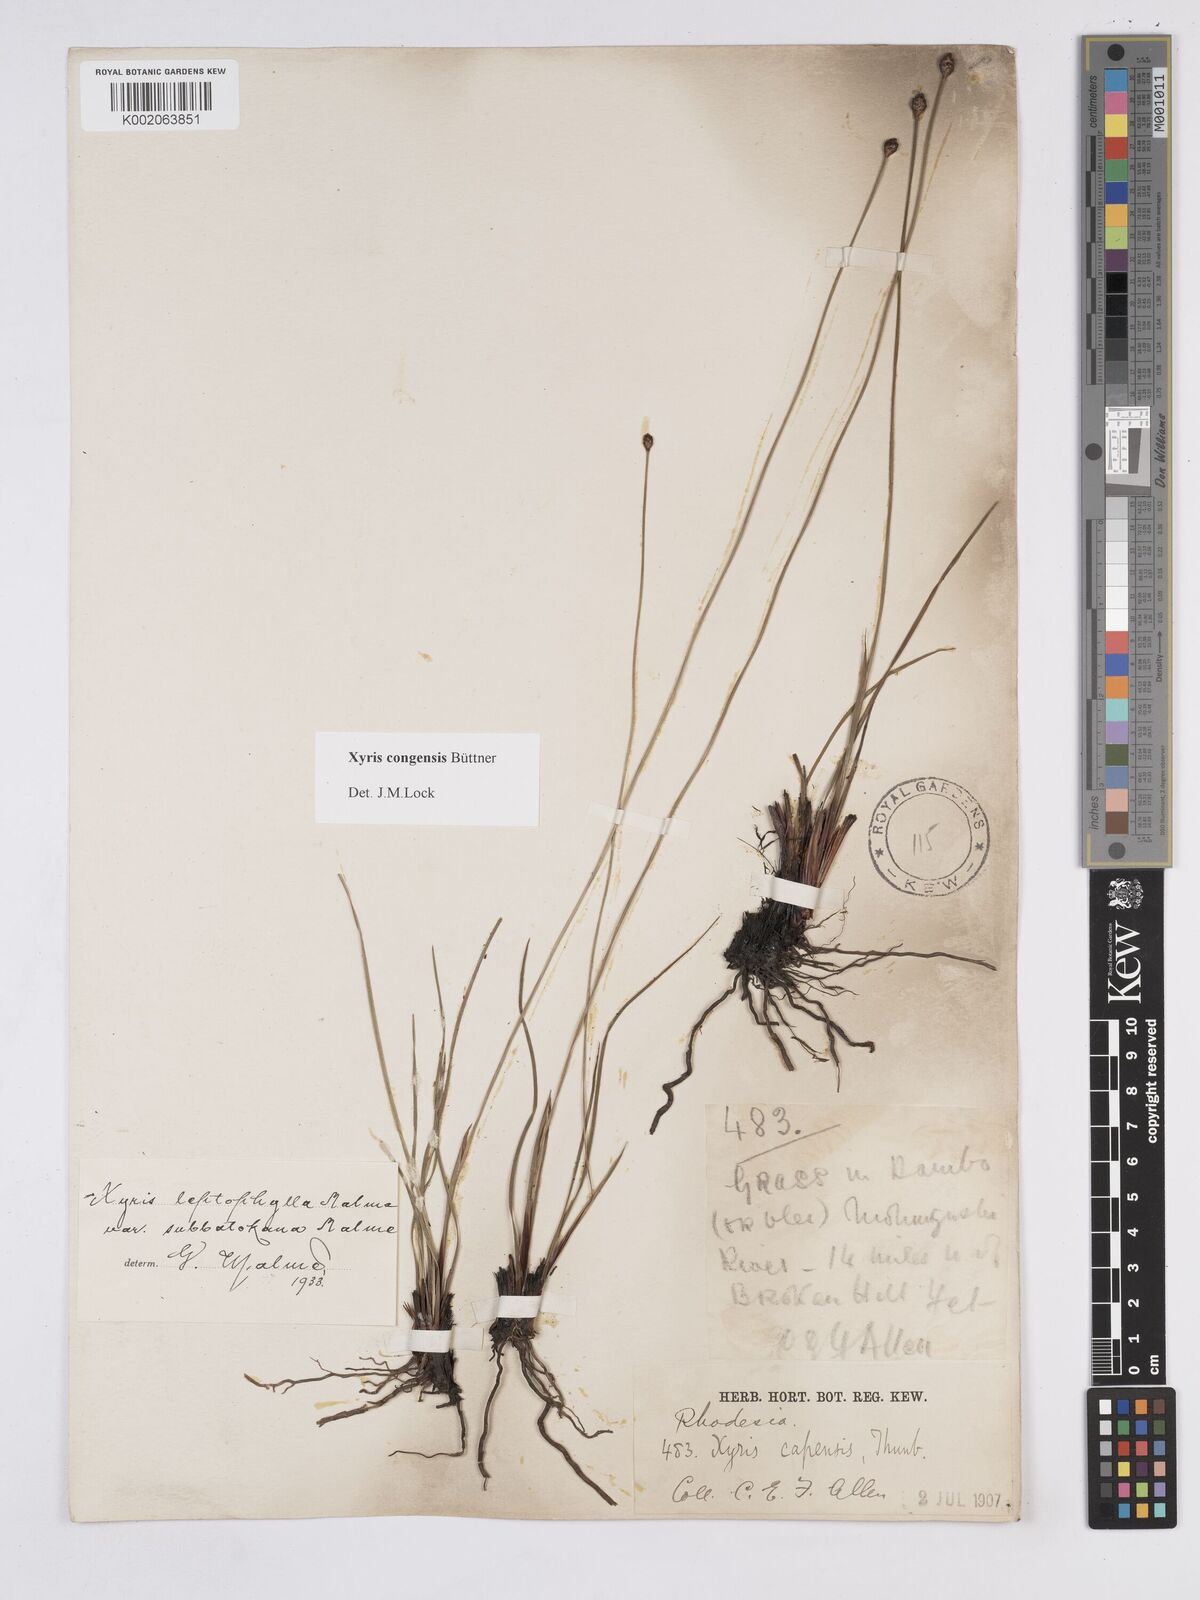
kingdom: Plantae
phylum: Tracheophyta
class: Liliopsida
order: Poales
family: Xyridaceae
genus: Xyris
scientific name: Xyris congensis
